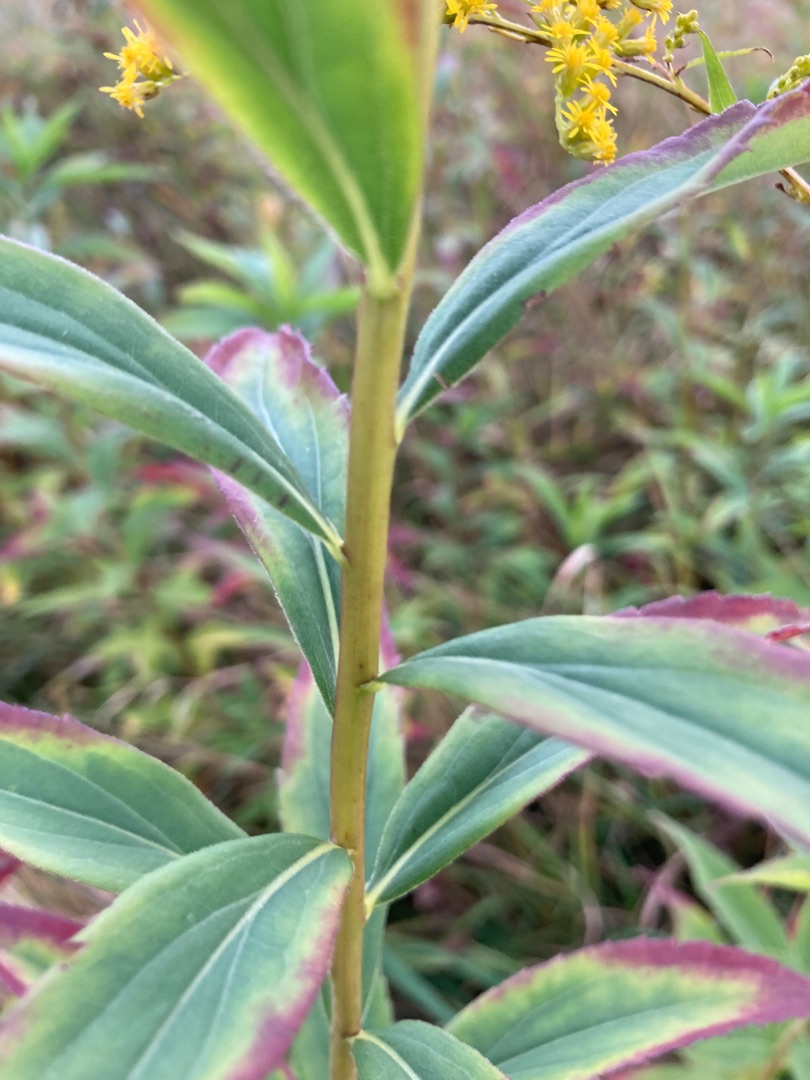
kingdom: Plantae
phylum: Tracheophyta
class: Magnoliopsida
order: Asterales
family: Asteraceae
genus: Solidago
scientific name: Solidago gigantea
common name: Sildig gyldenris
